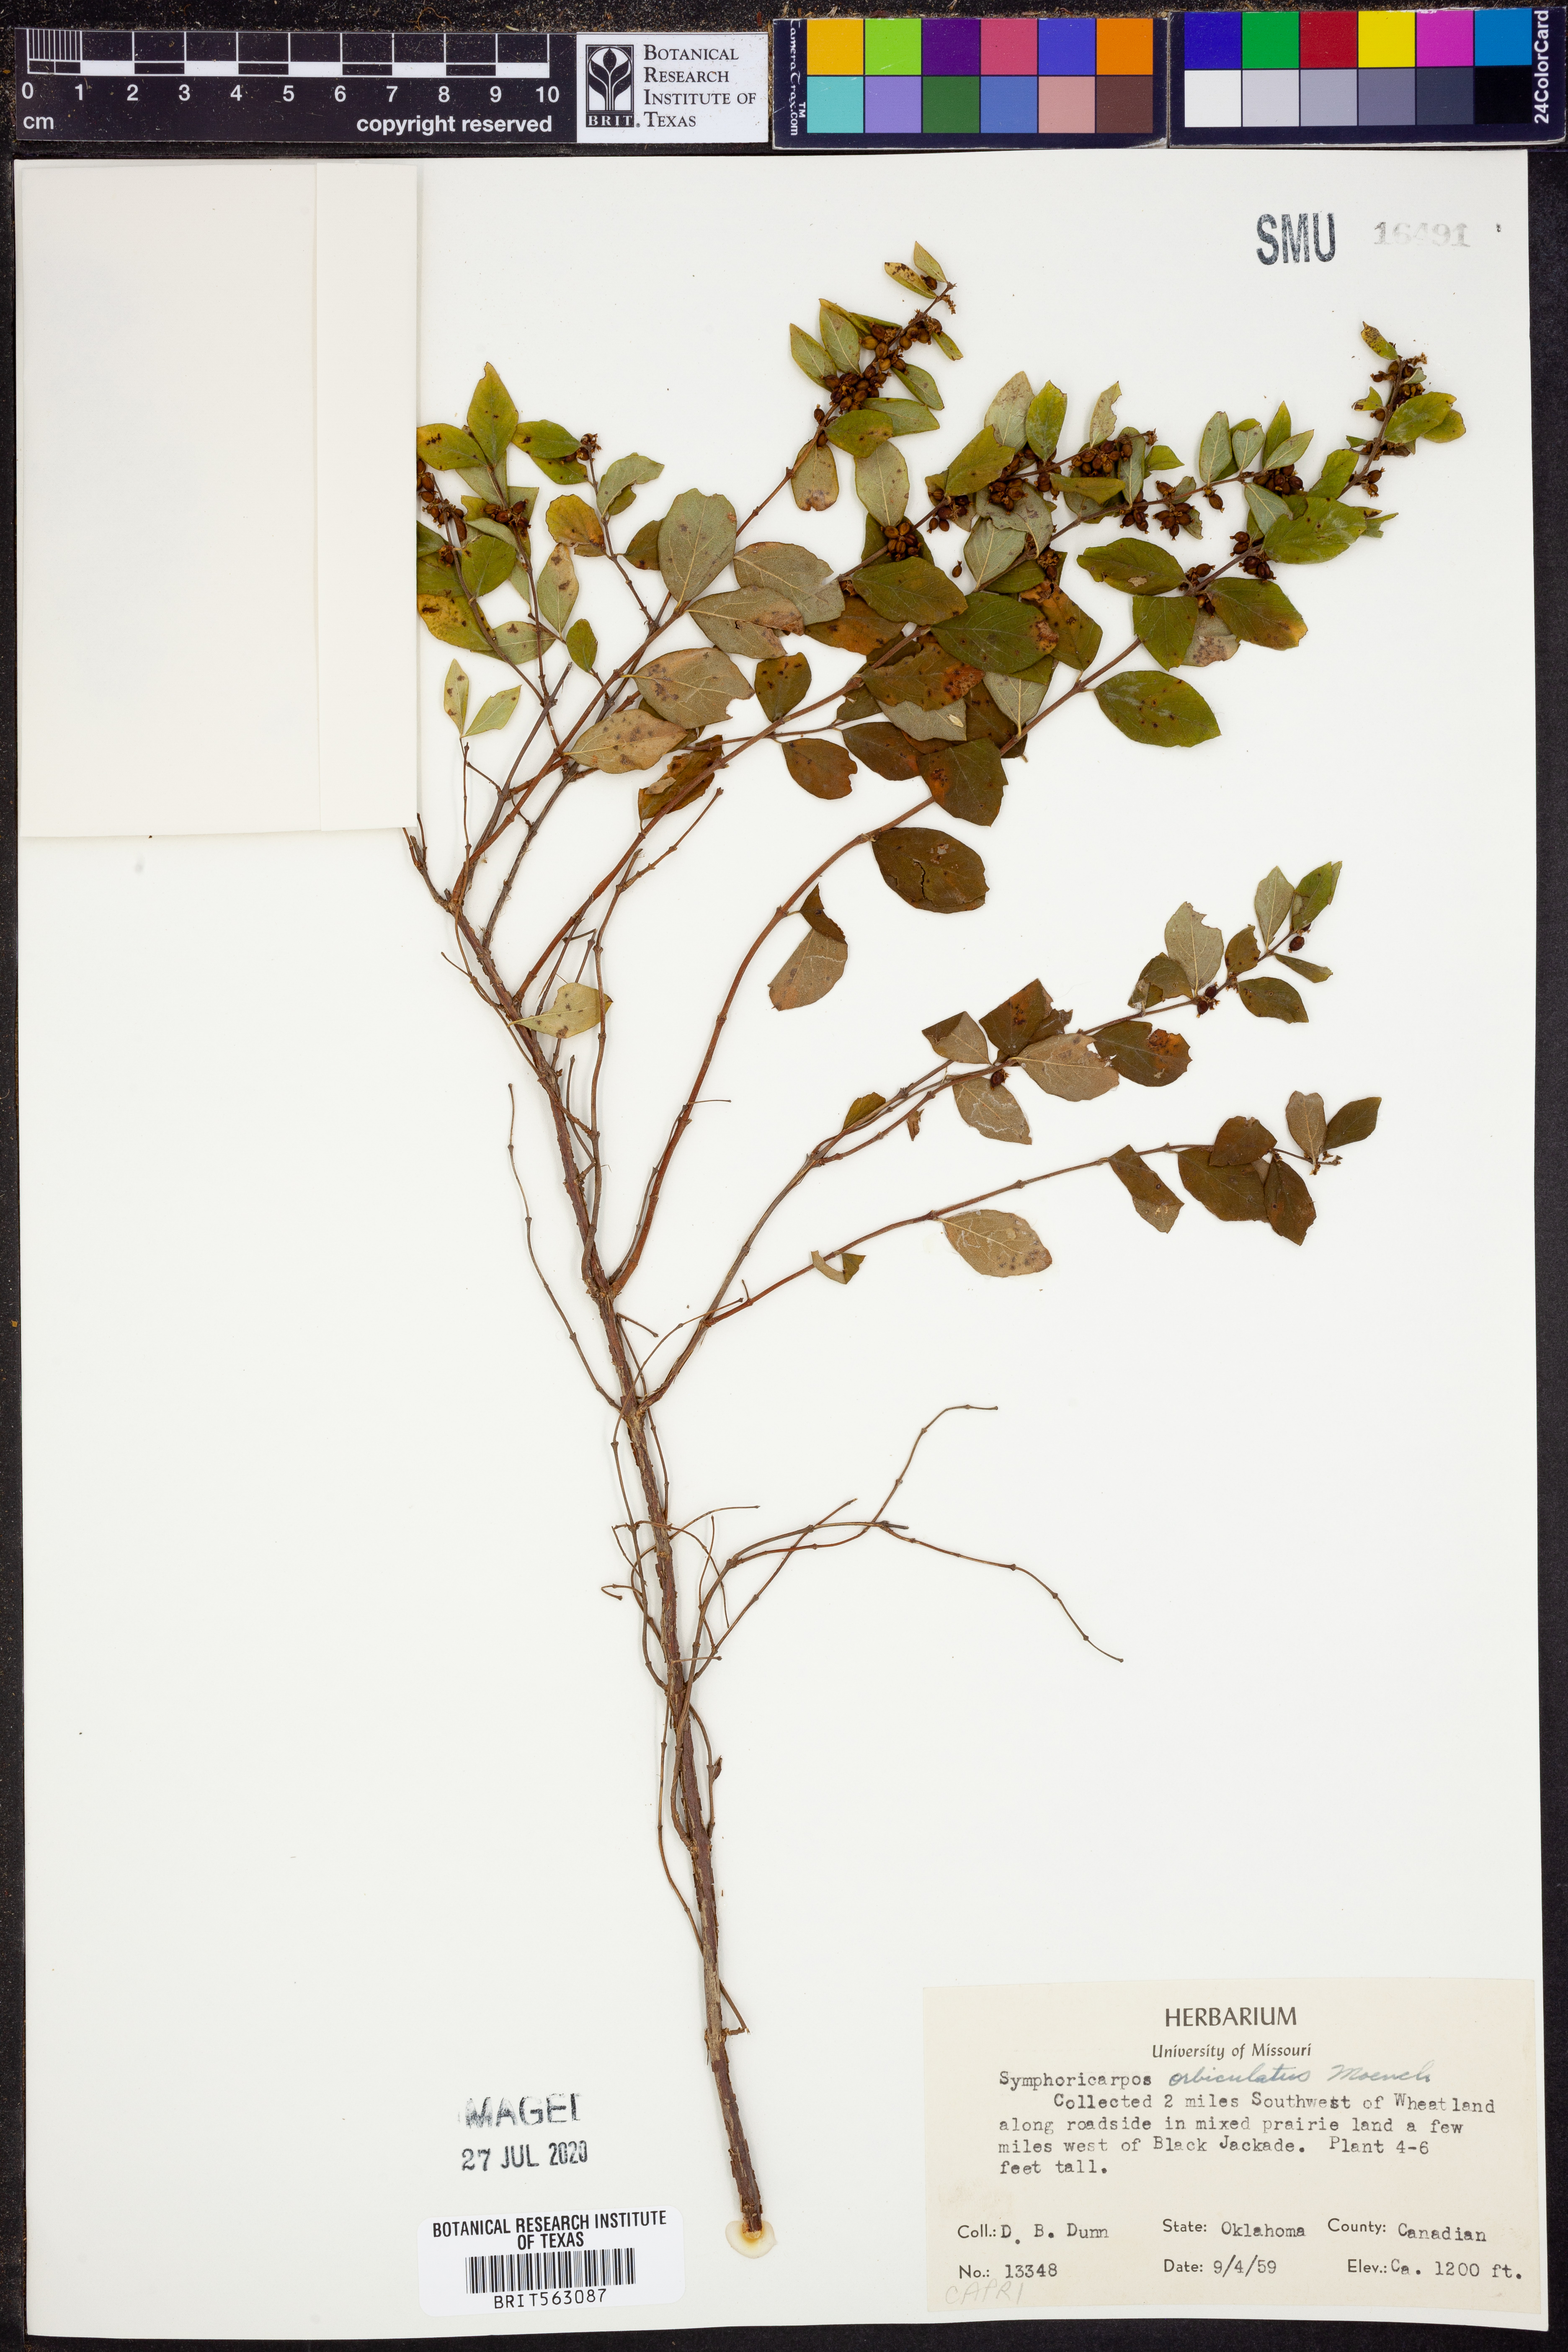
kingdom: Plantae
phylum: Tracheophyta
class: Magnoliopsida
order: Dipsacales
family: Caprifoliaceae
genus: Symphoricarpos
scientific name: Symphoricarpos orbiculatus
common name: Coralberry
